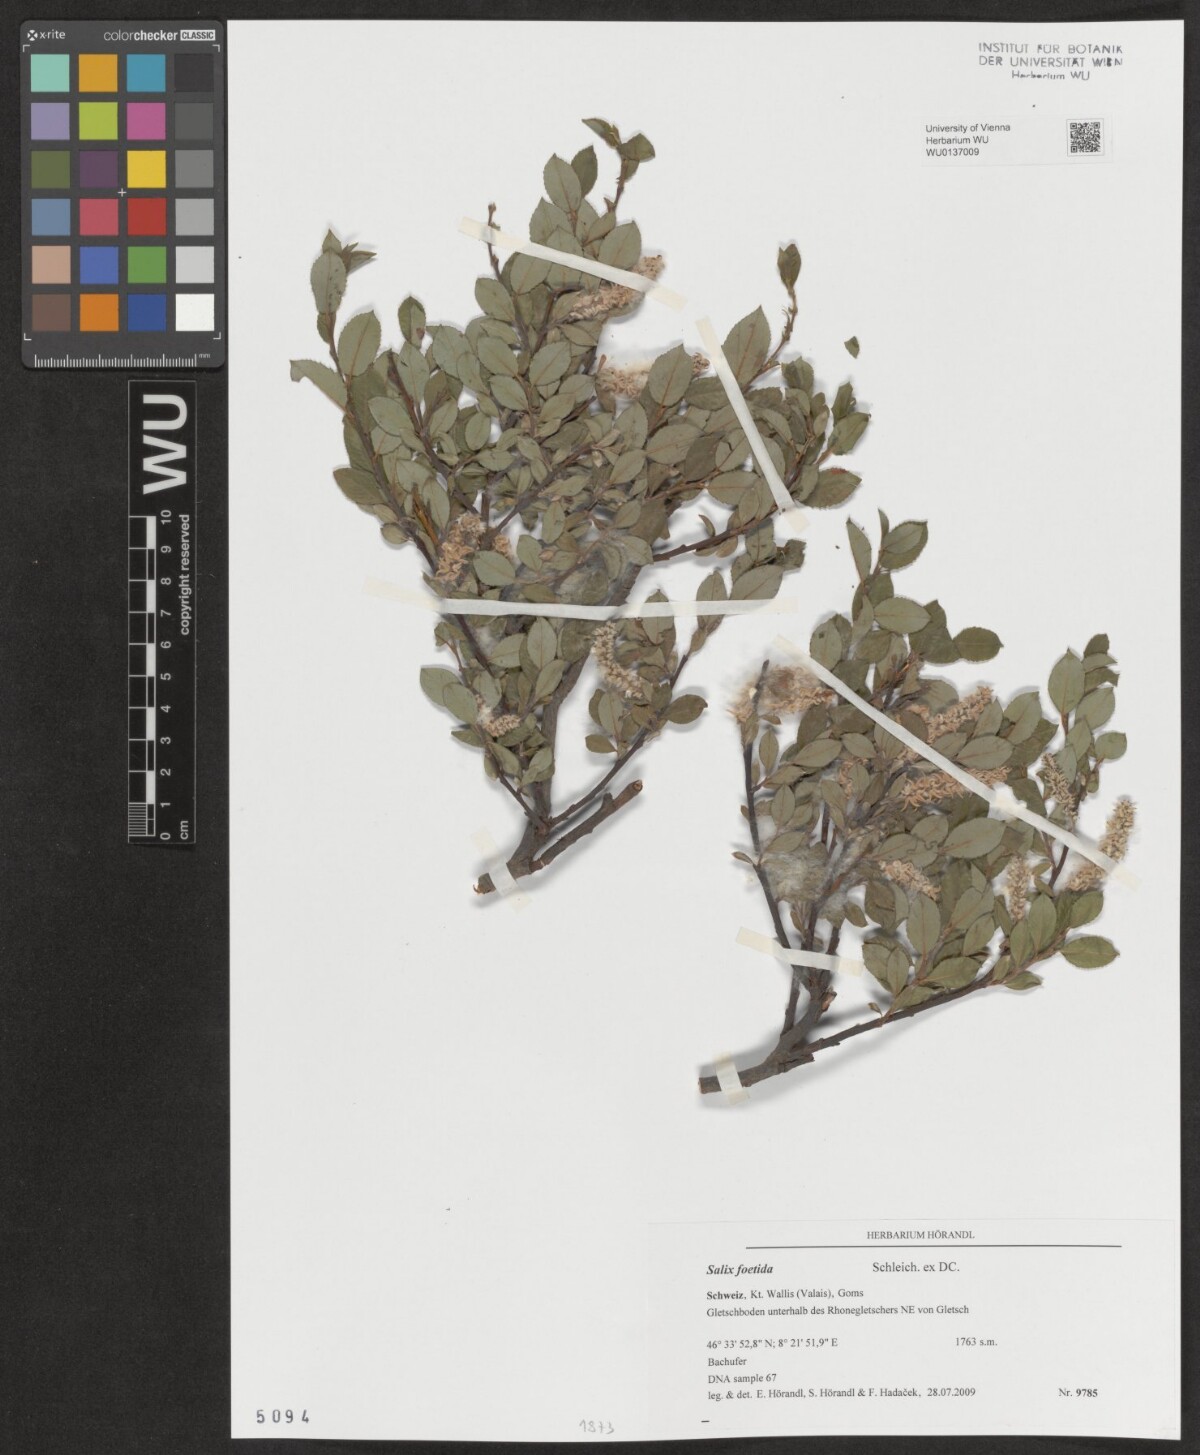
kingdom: Plantae
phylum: Tracheophyta
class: Magnoliopsida
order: Malpighiales
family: Salicaceae
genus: Salix
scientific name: Salix foetida
